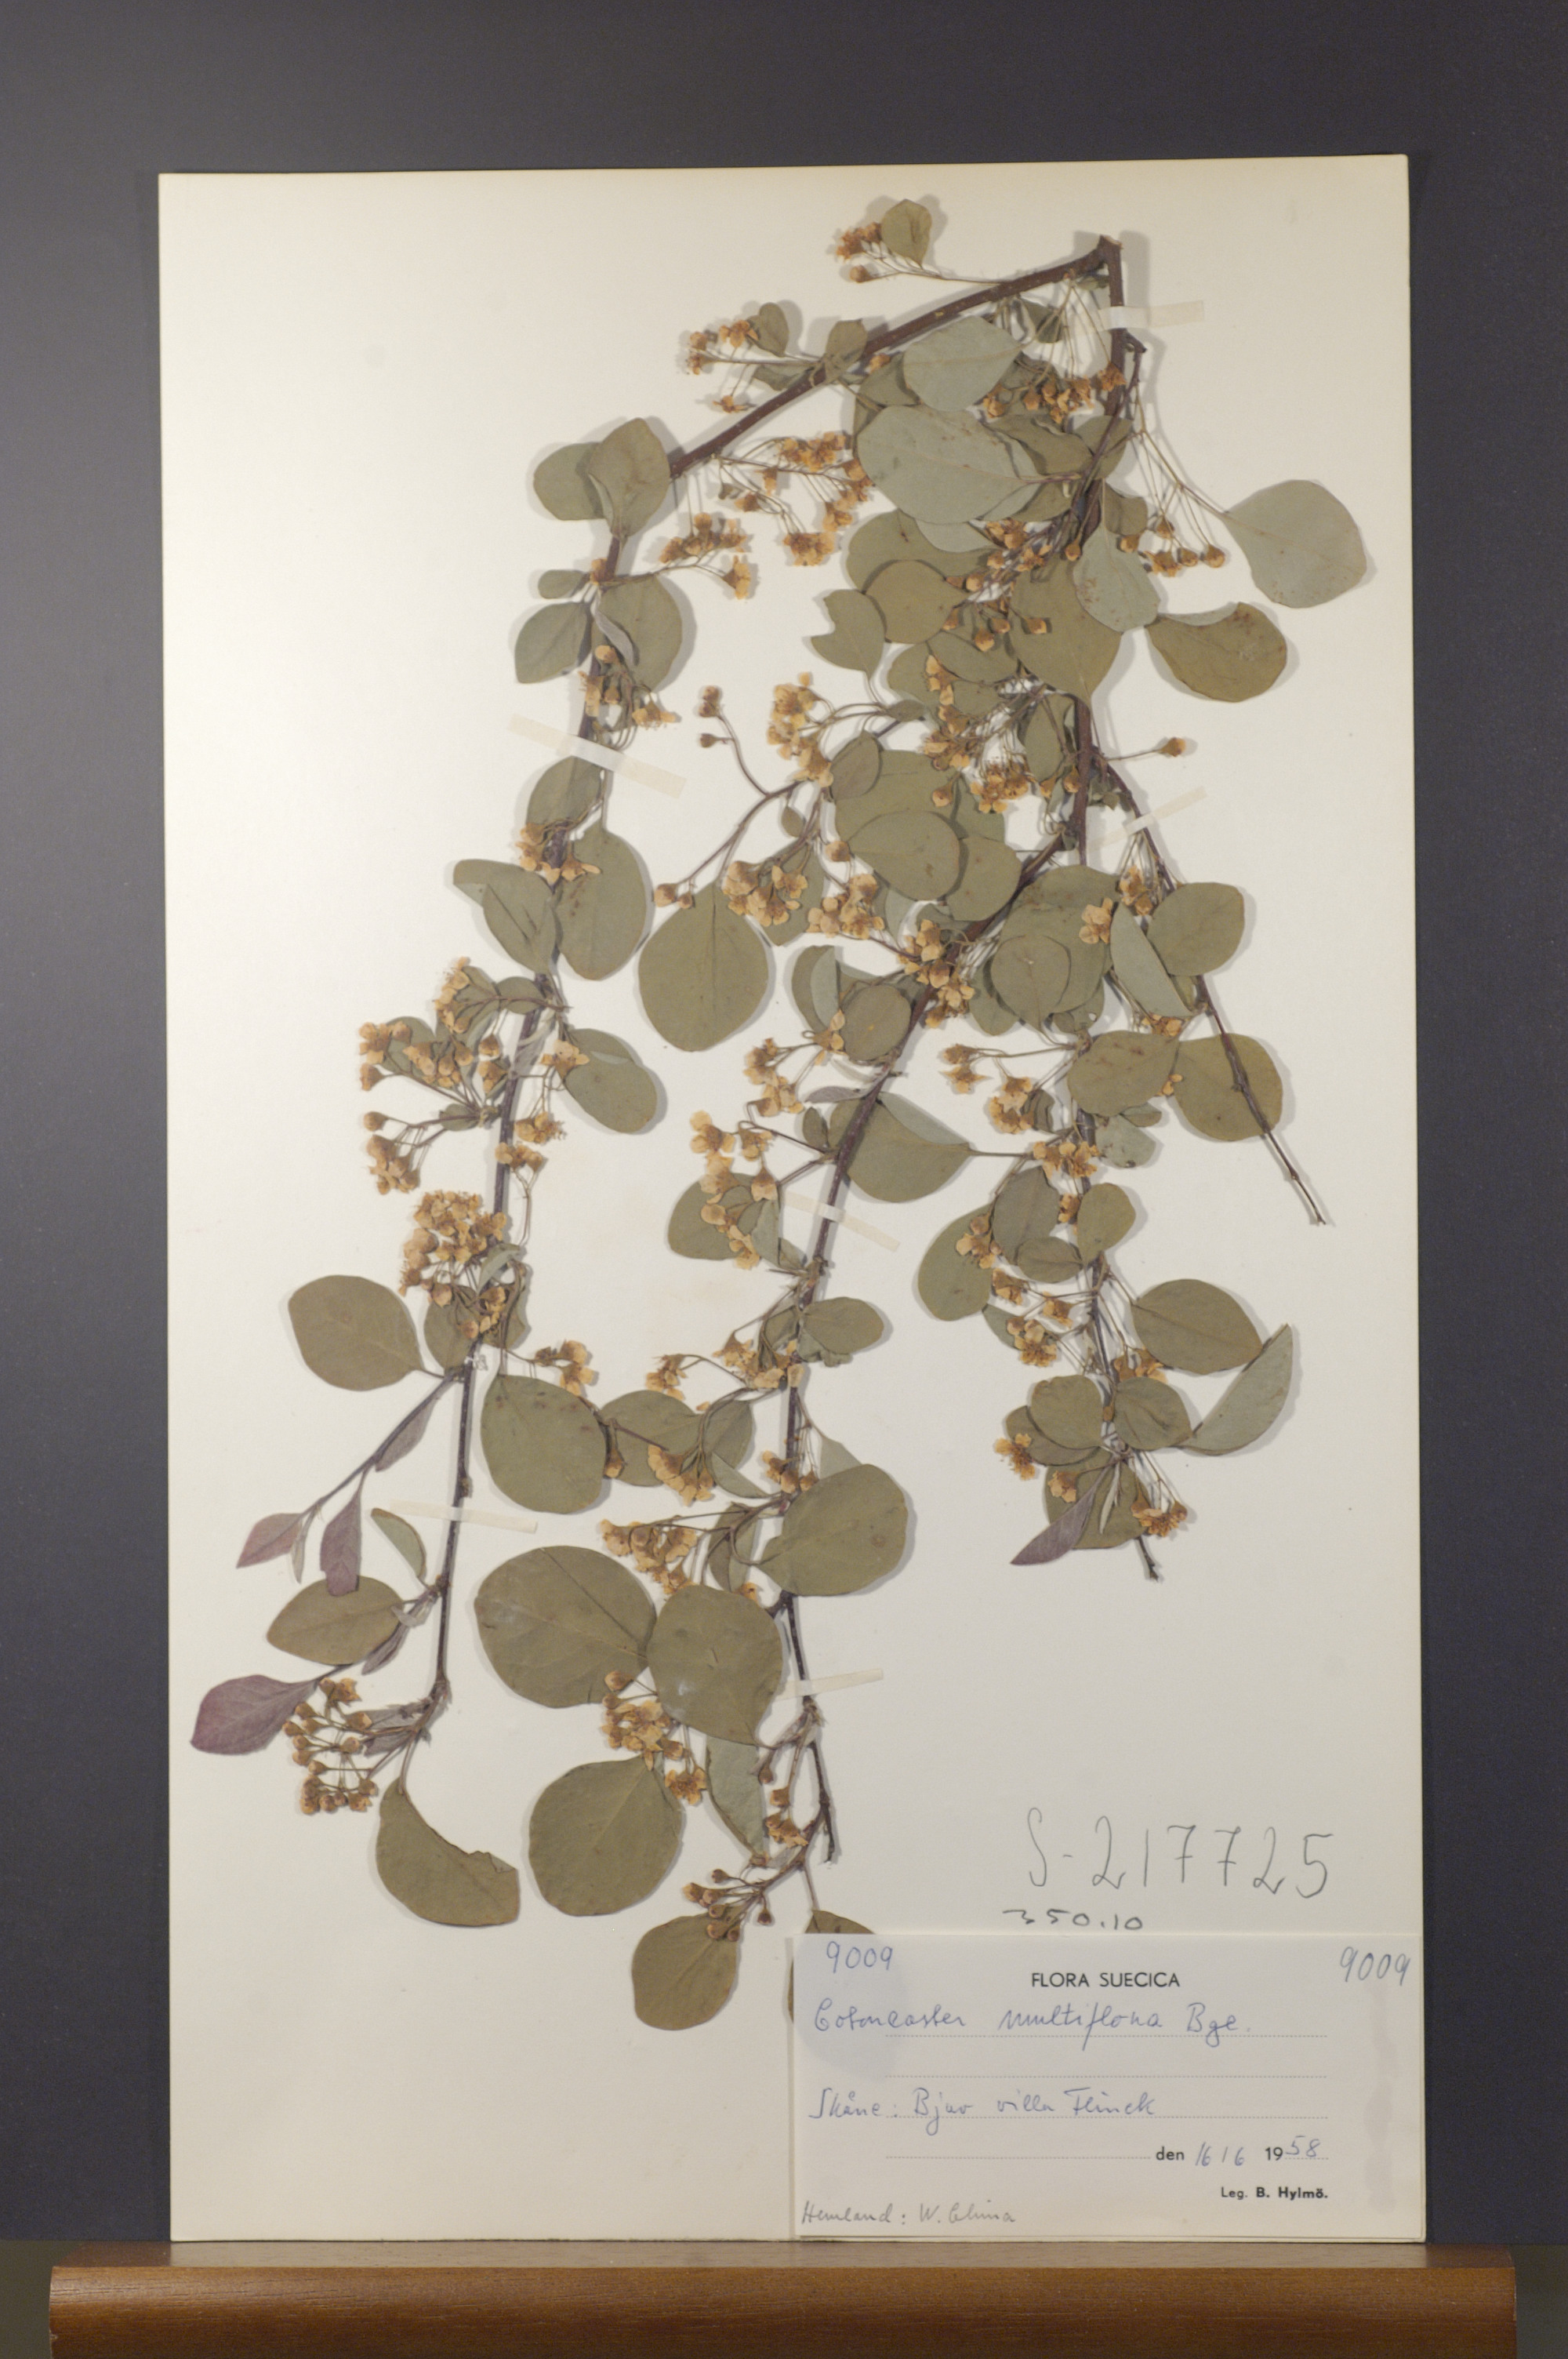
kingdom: Plantae
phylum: Tracheophyta
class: Magnoliopsida
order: Rosales
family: Rosaceae
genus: Cotoneaster
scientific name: Cotoneaster multiflorus
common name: Cotoneaster
